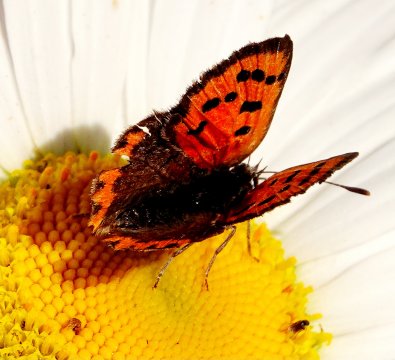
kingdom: Animalia
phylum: Arthropoda
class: Insecta
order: Lepidoptera
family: Lycaenidae
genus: Lycaena
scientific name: Lycaena phlaeas
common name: American Copper
